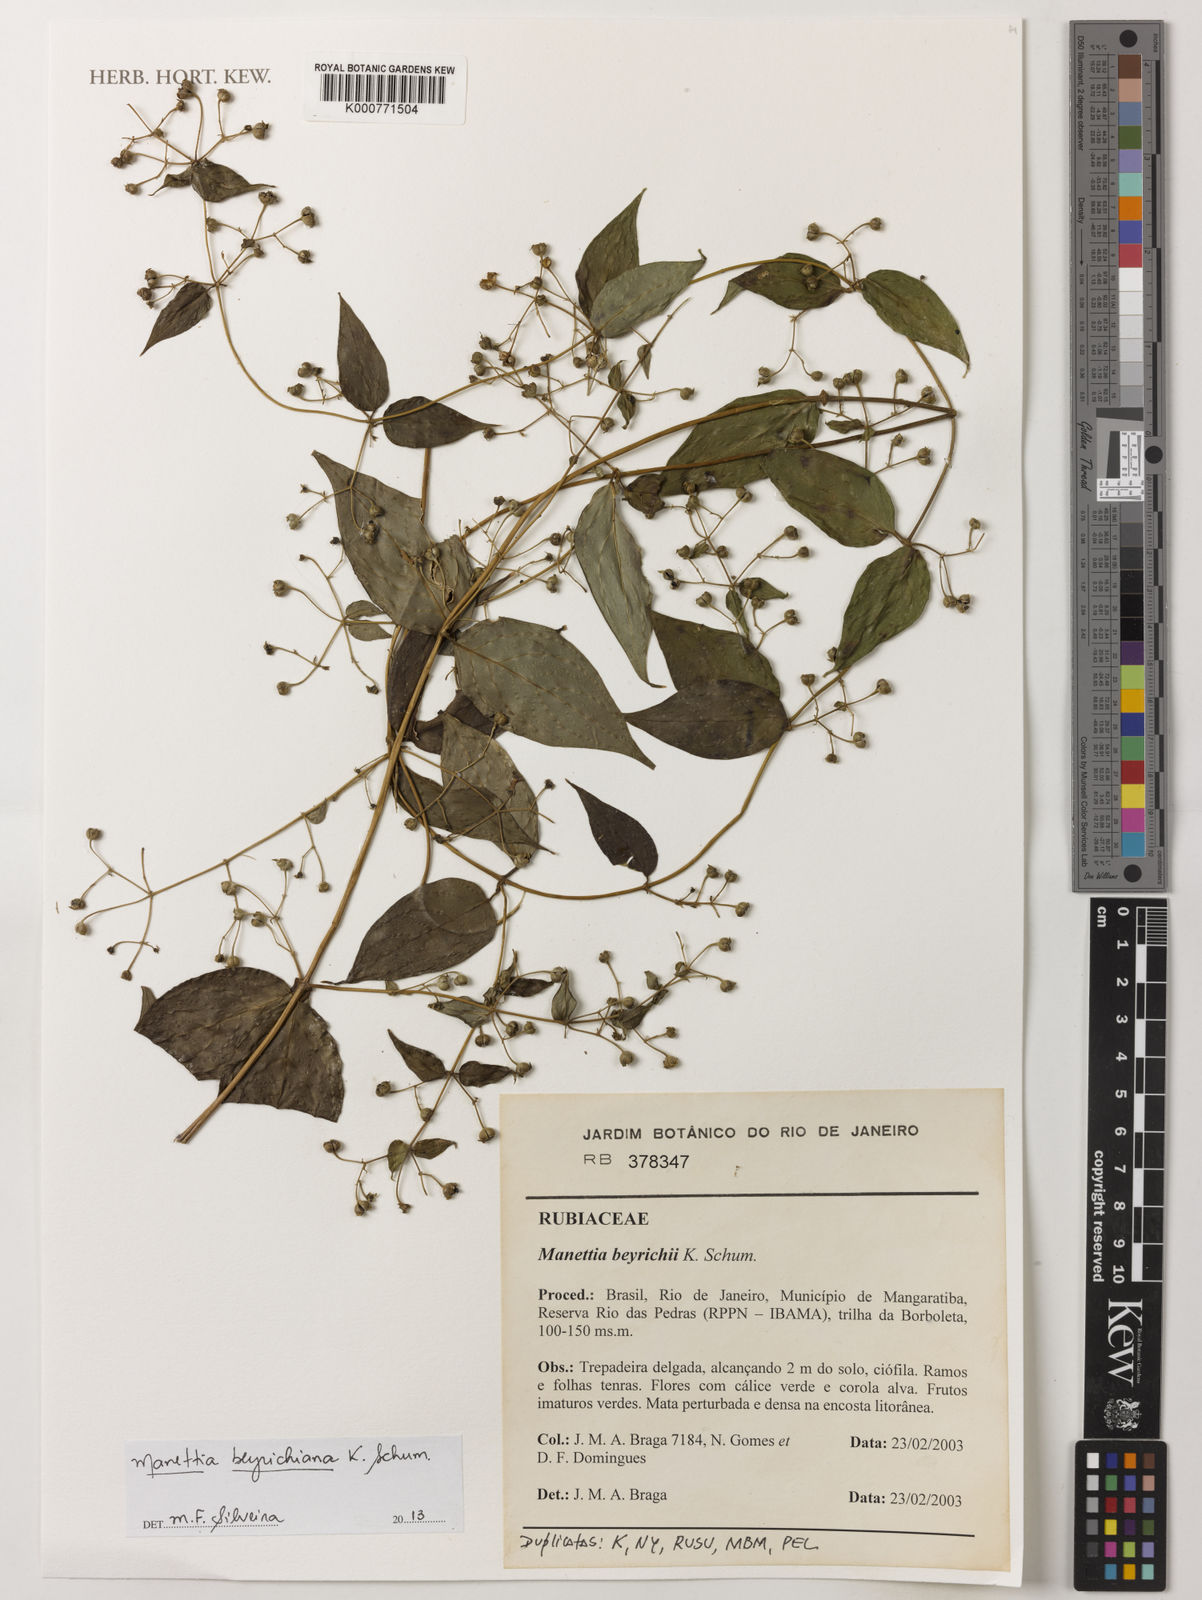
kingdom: Plantae
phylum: Tracheophyta
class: Magnoliopsida
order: Gentianales
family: Rubiaceae
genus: Manettia
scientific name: Manettia beyrichiana
